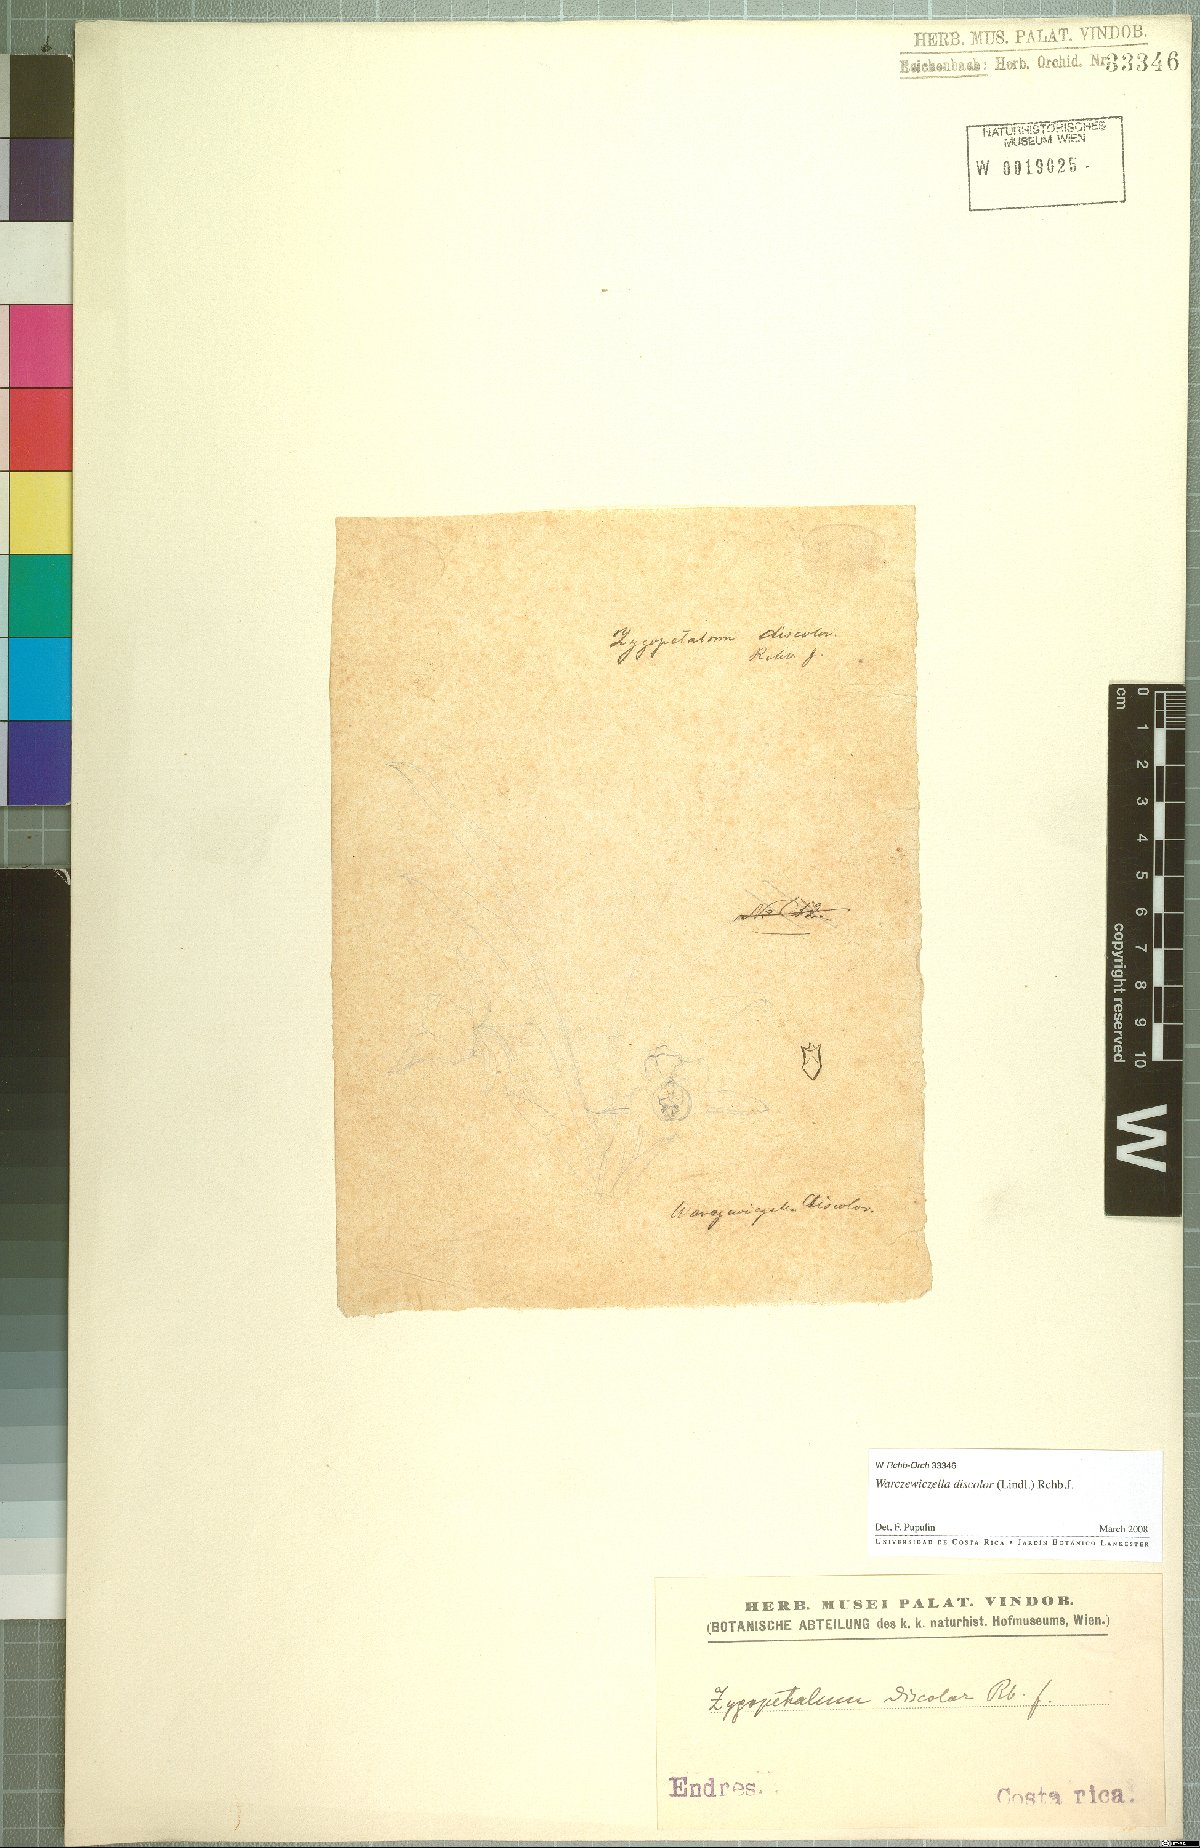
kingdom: Plantae
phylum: Tracheophyta
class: Liliopsida
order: Asparagales
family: Orchidaceae
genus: Warczewiczella
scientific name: Warczewiczella discolor
